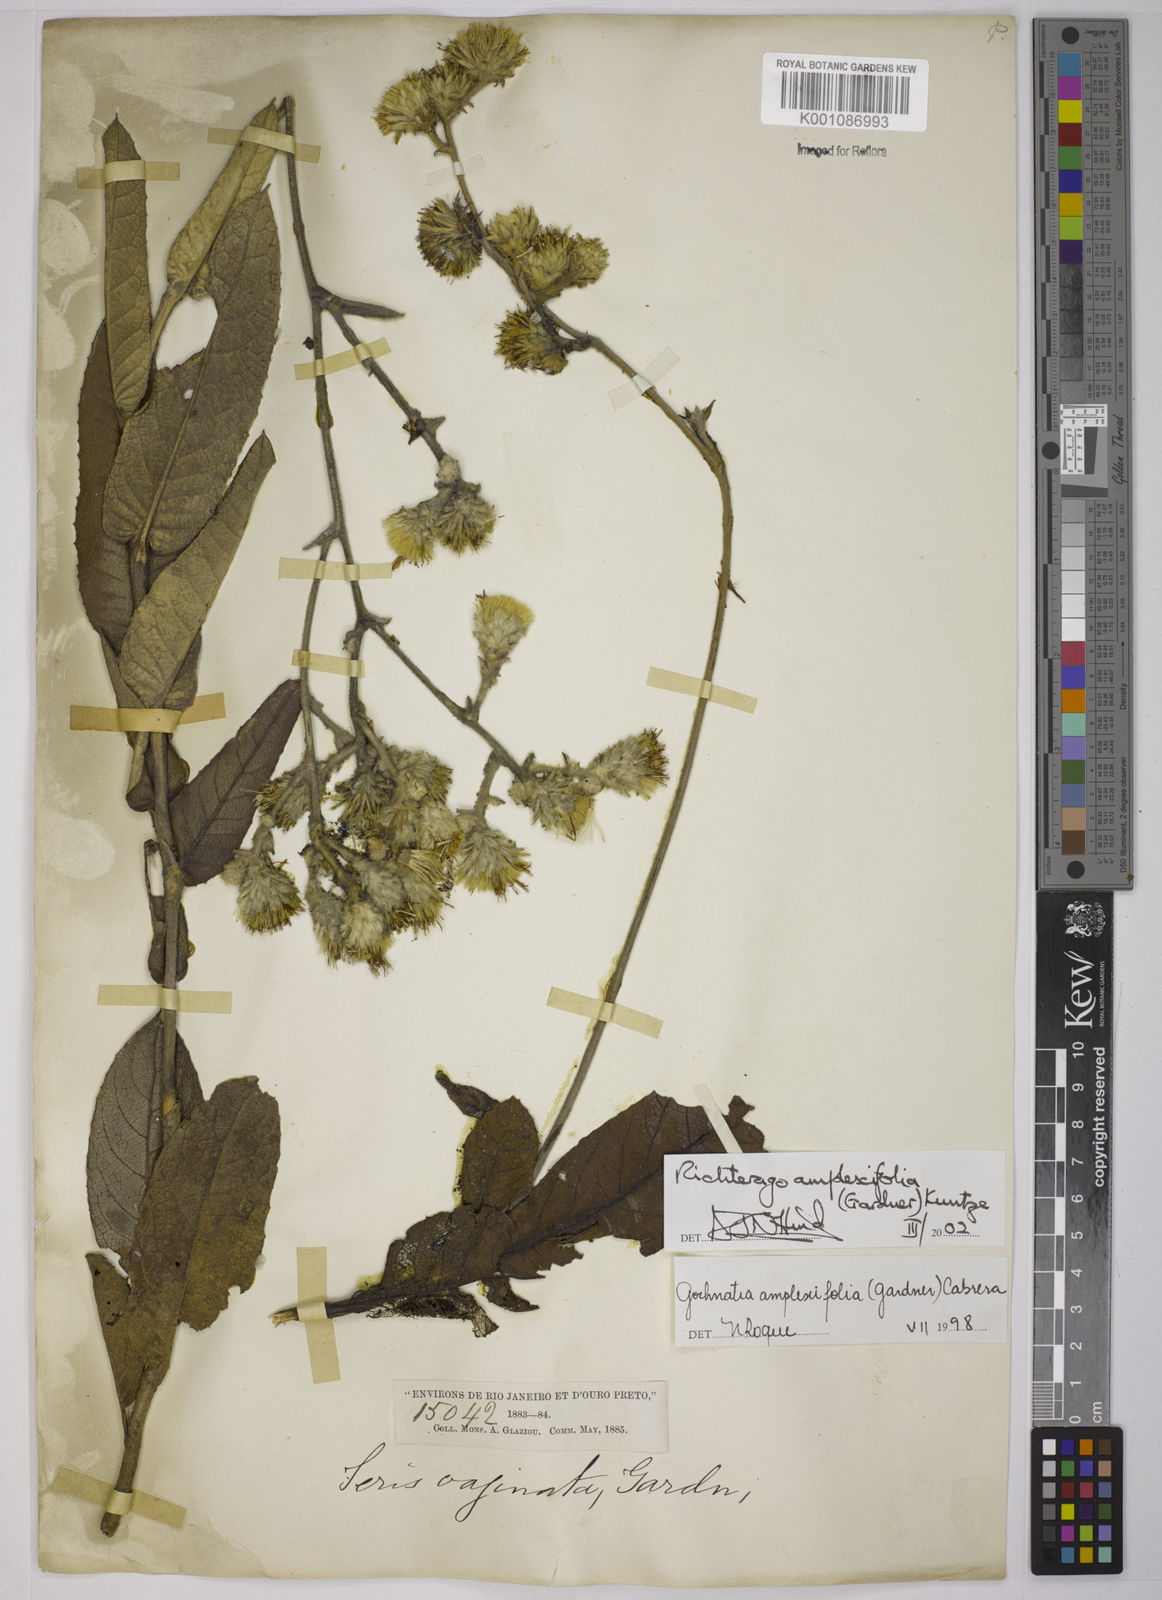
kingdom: Plantae
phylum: Tracheophyta
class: Magnoliopsida
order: Asterales
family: Asteraceae
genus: Richterago
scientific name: Richterago amplexifolia
